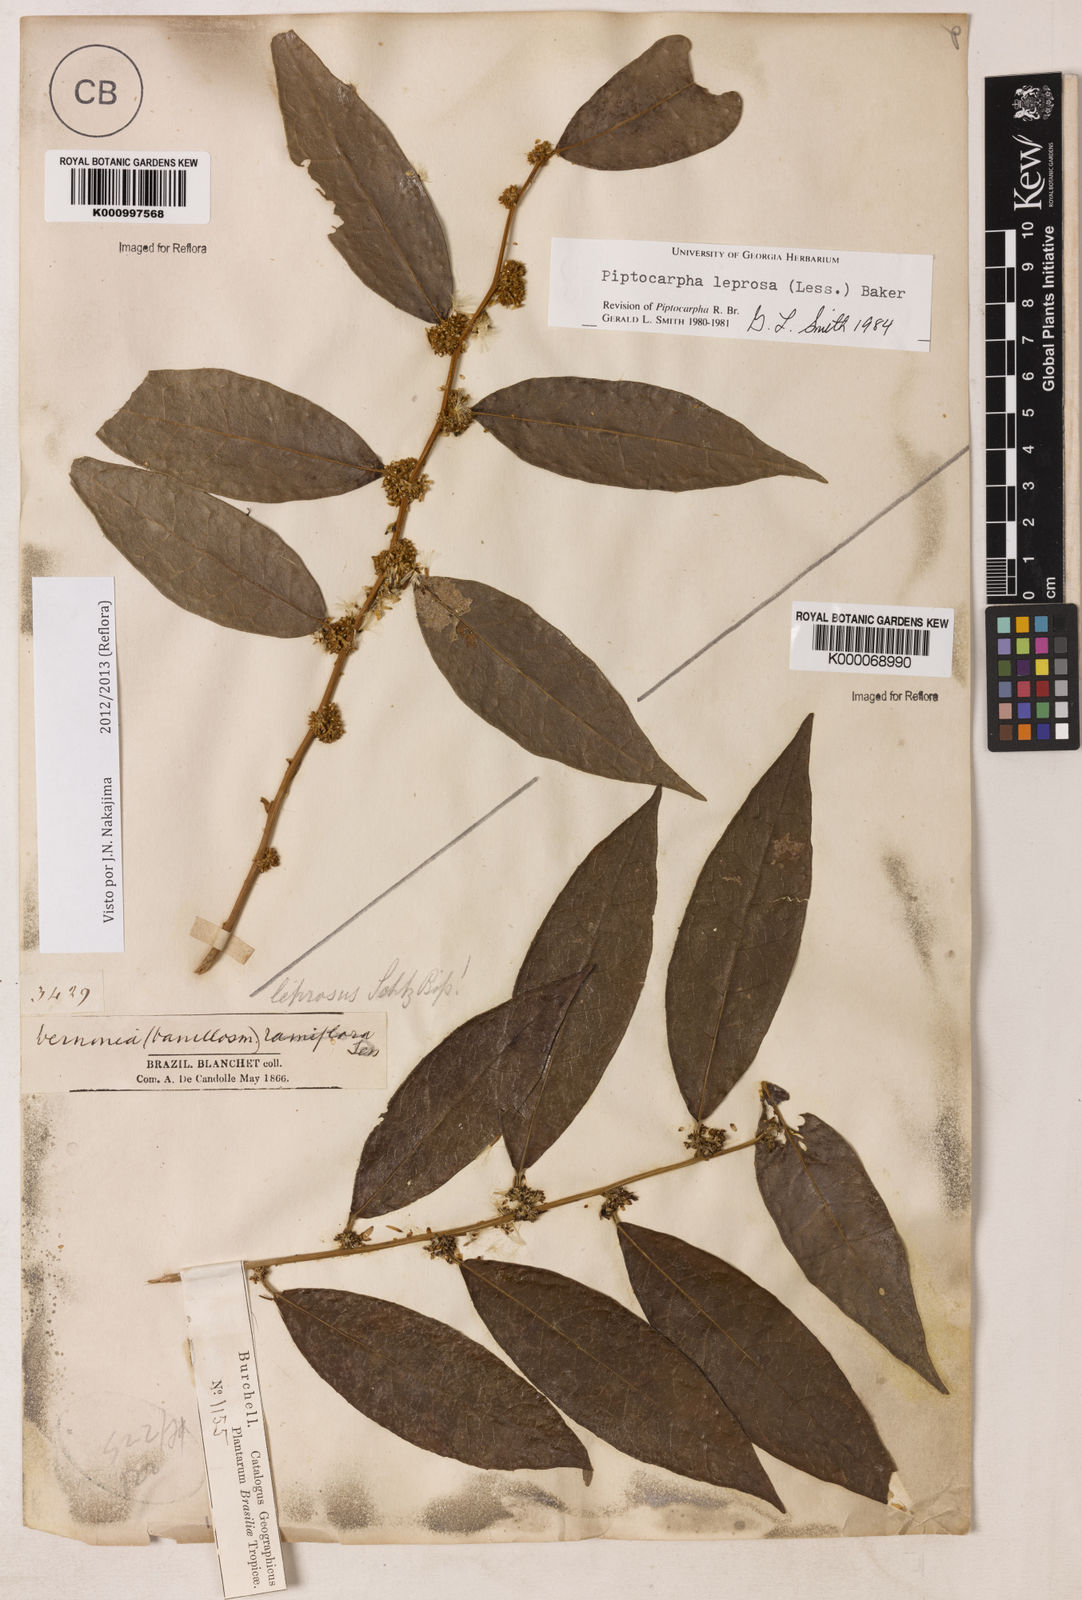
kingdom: Plantae
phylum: Tracheophyta
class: Magnoliopsida
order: Asterales
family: Asteraceae
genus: Piptocarpha
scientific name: Piptocarpha leprosa
